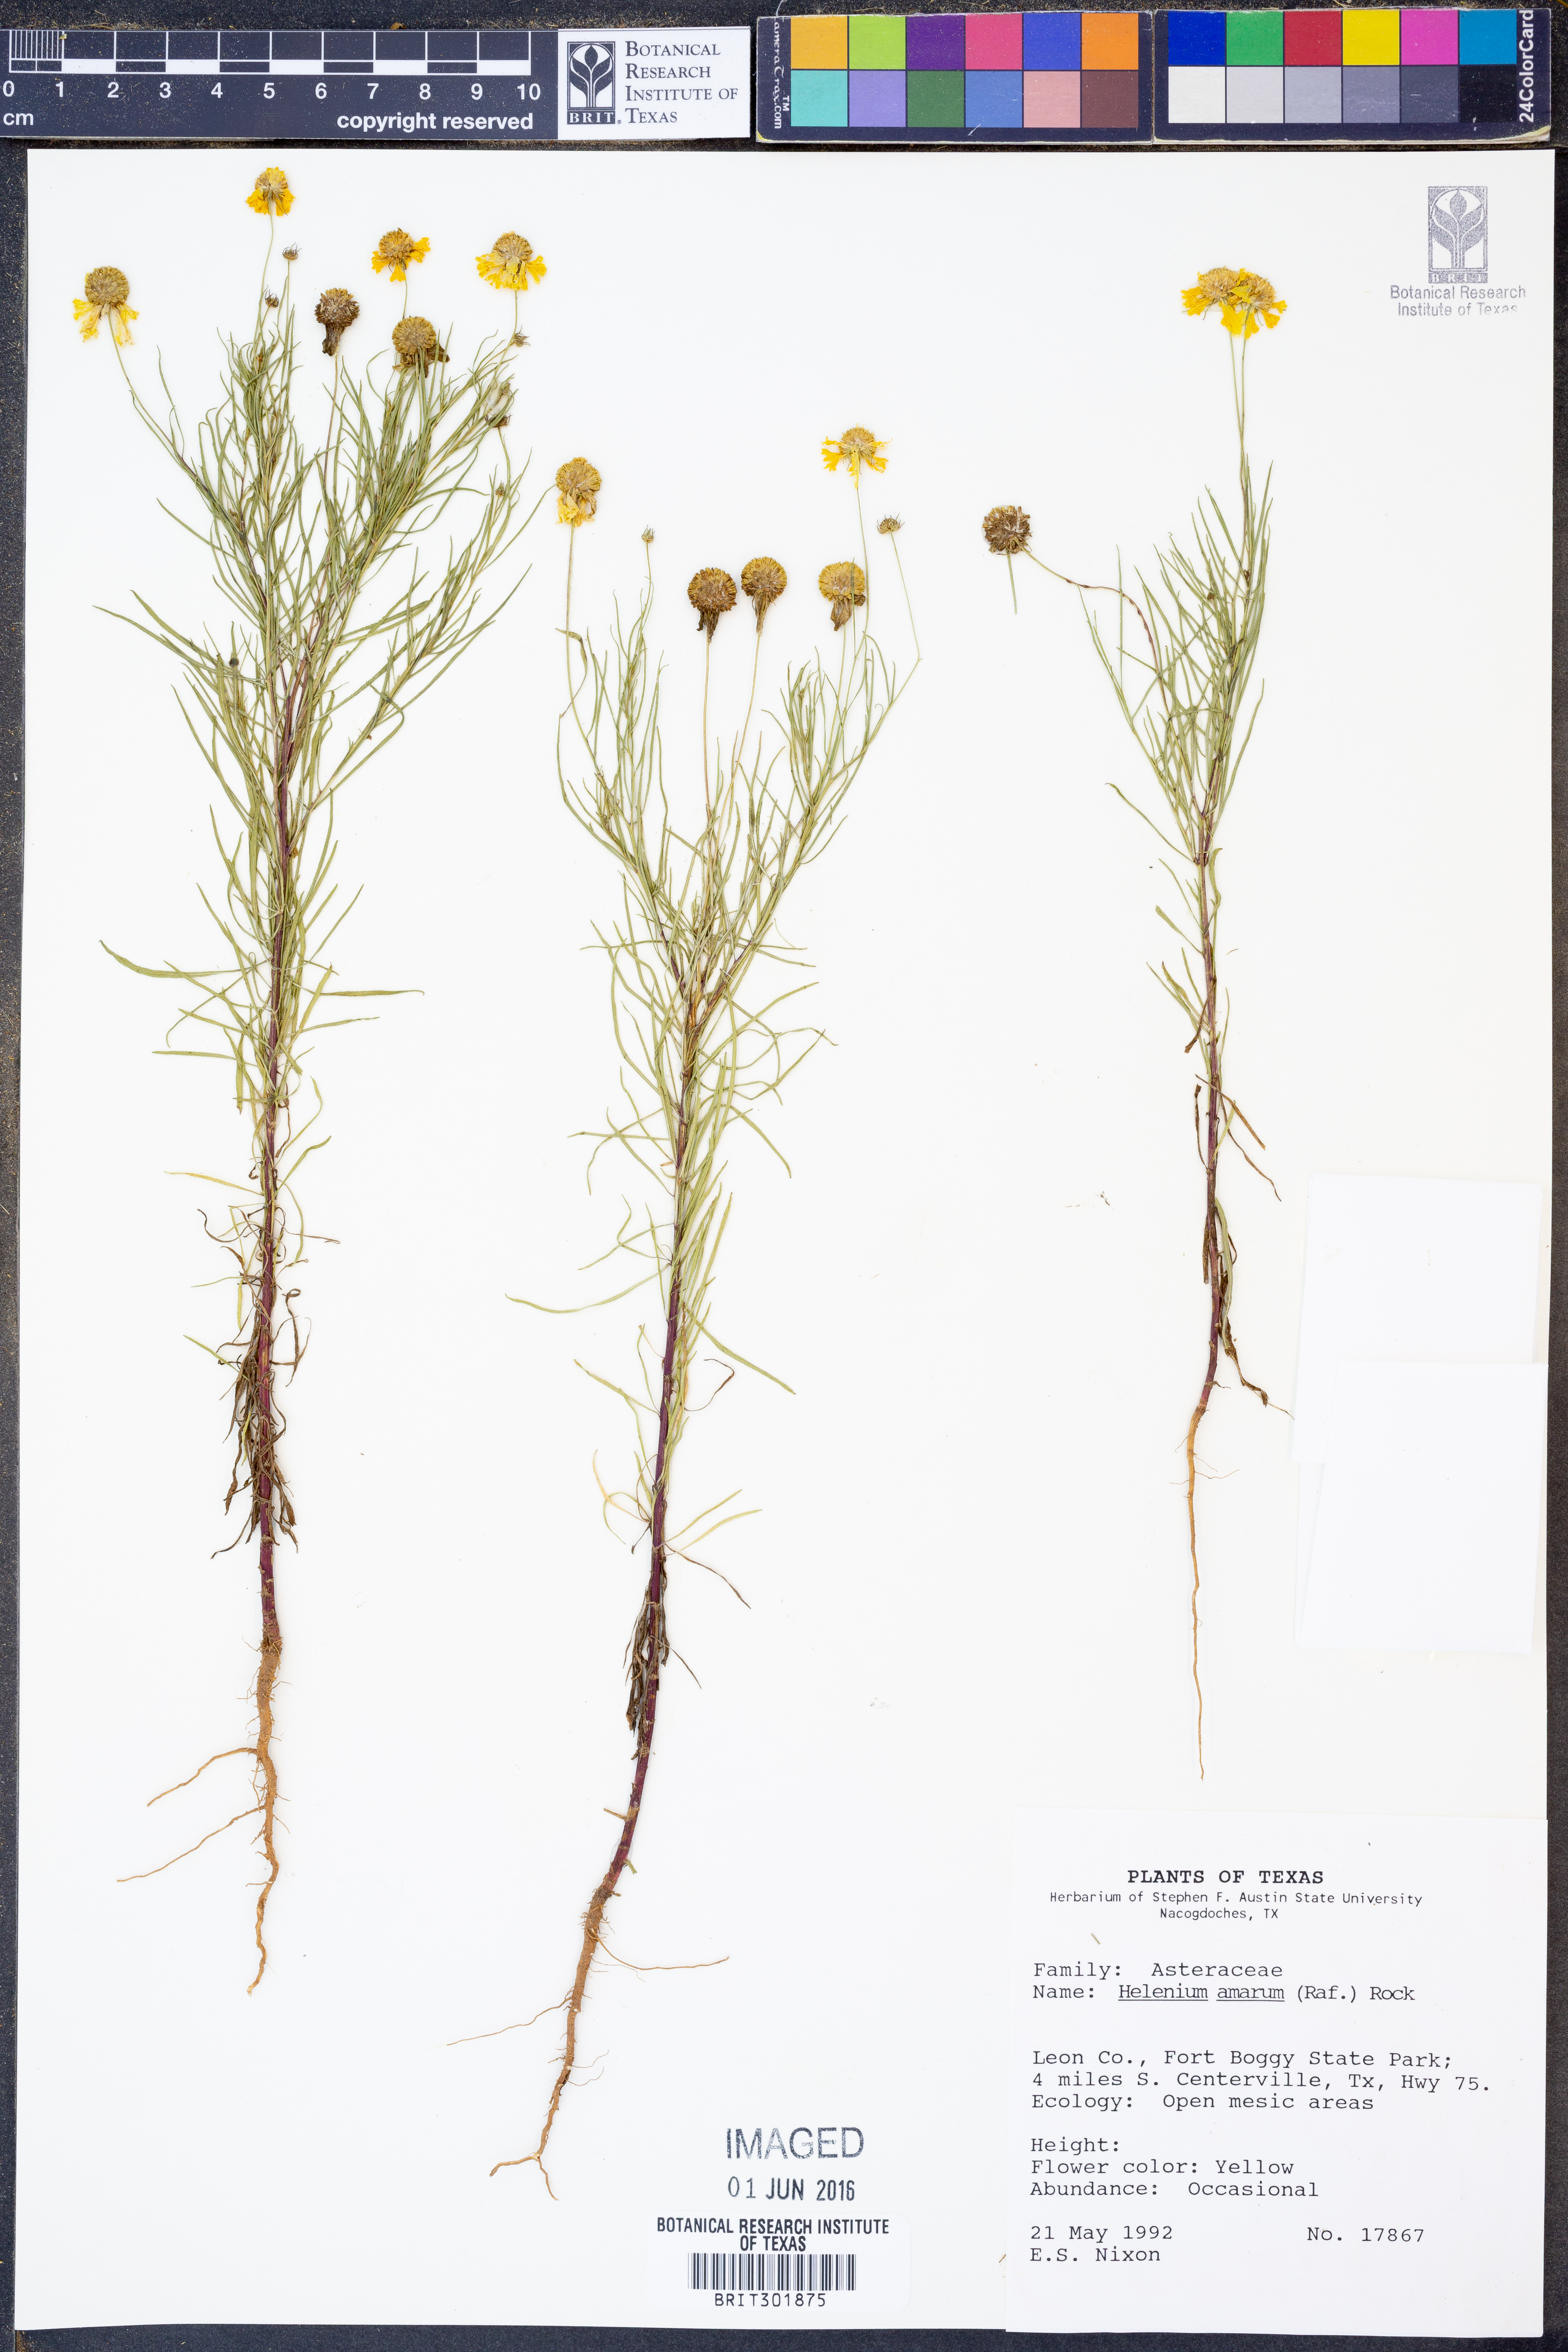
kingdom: Plantae
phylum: Tracheophyta
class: Magnoliopsida
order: Asterales
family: Asteraceae
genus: Helenium
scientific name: Helenium amarum
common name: Bitter sneezeweed
